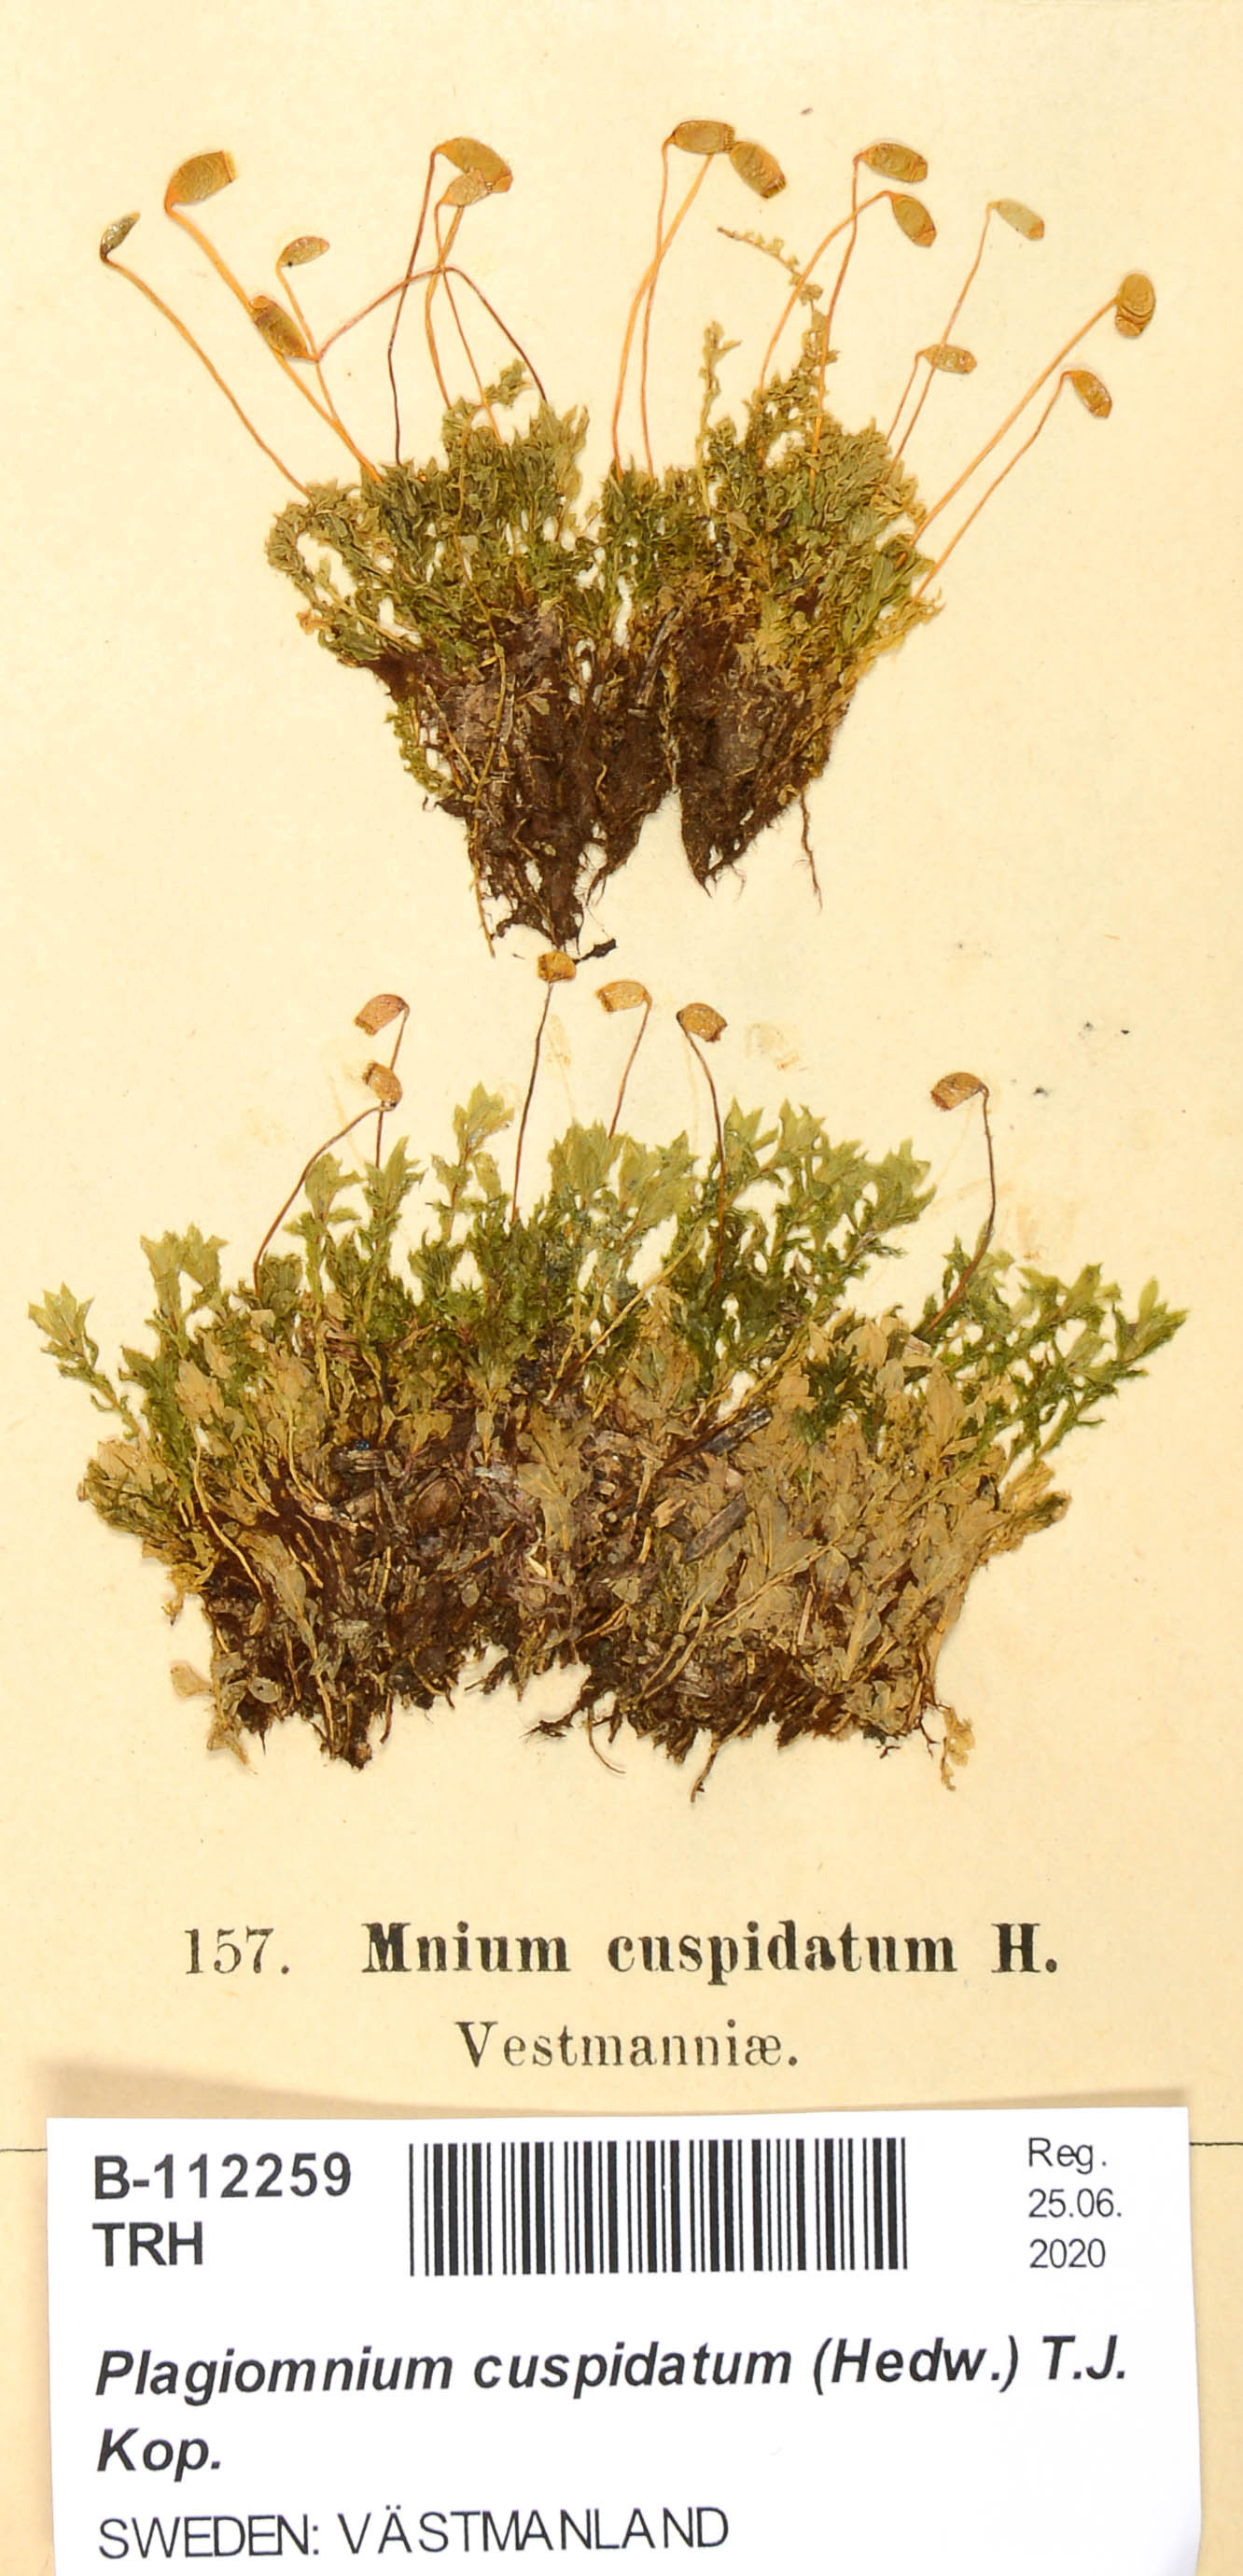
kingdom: Plantae
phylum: Bryophyta
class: Bryopsida
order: Bryales
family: Mniaceae
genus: Plagiomnium
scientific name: Plagiomnium cuspidatum
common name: Woodsy leafy moss
